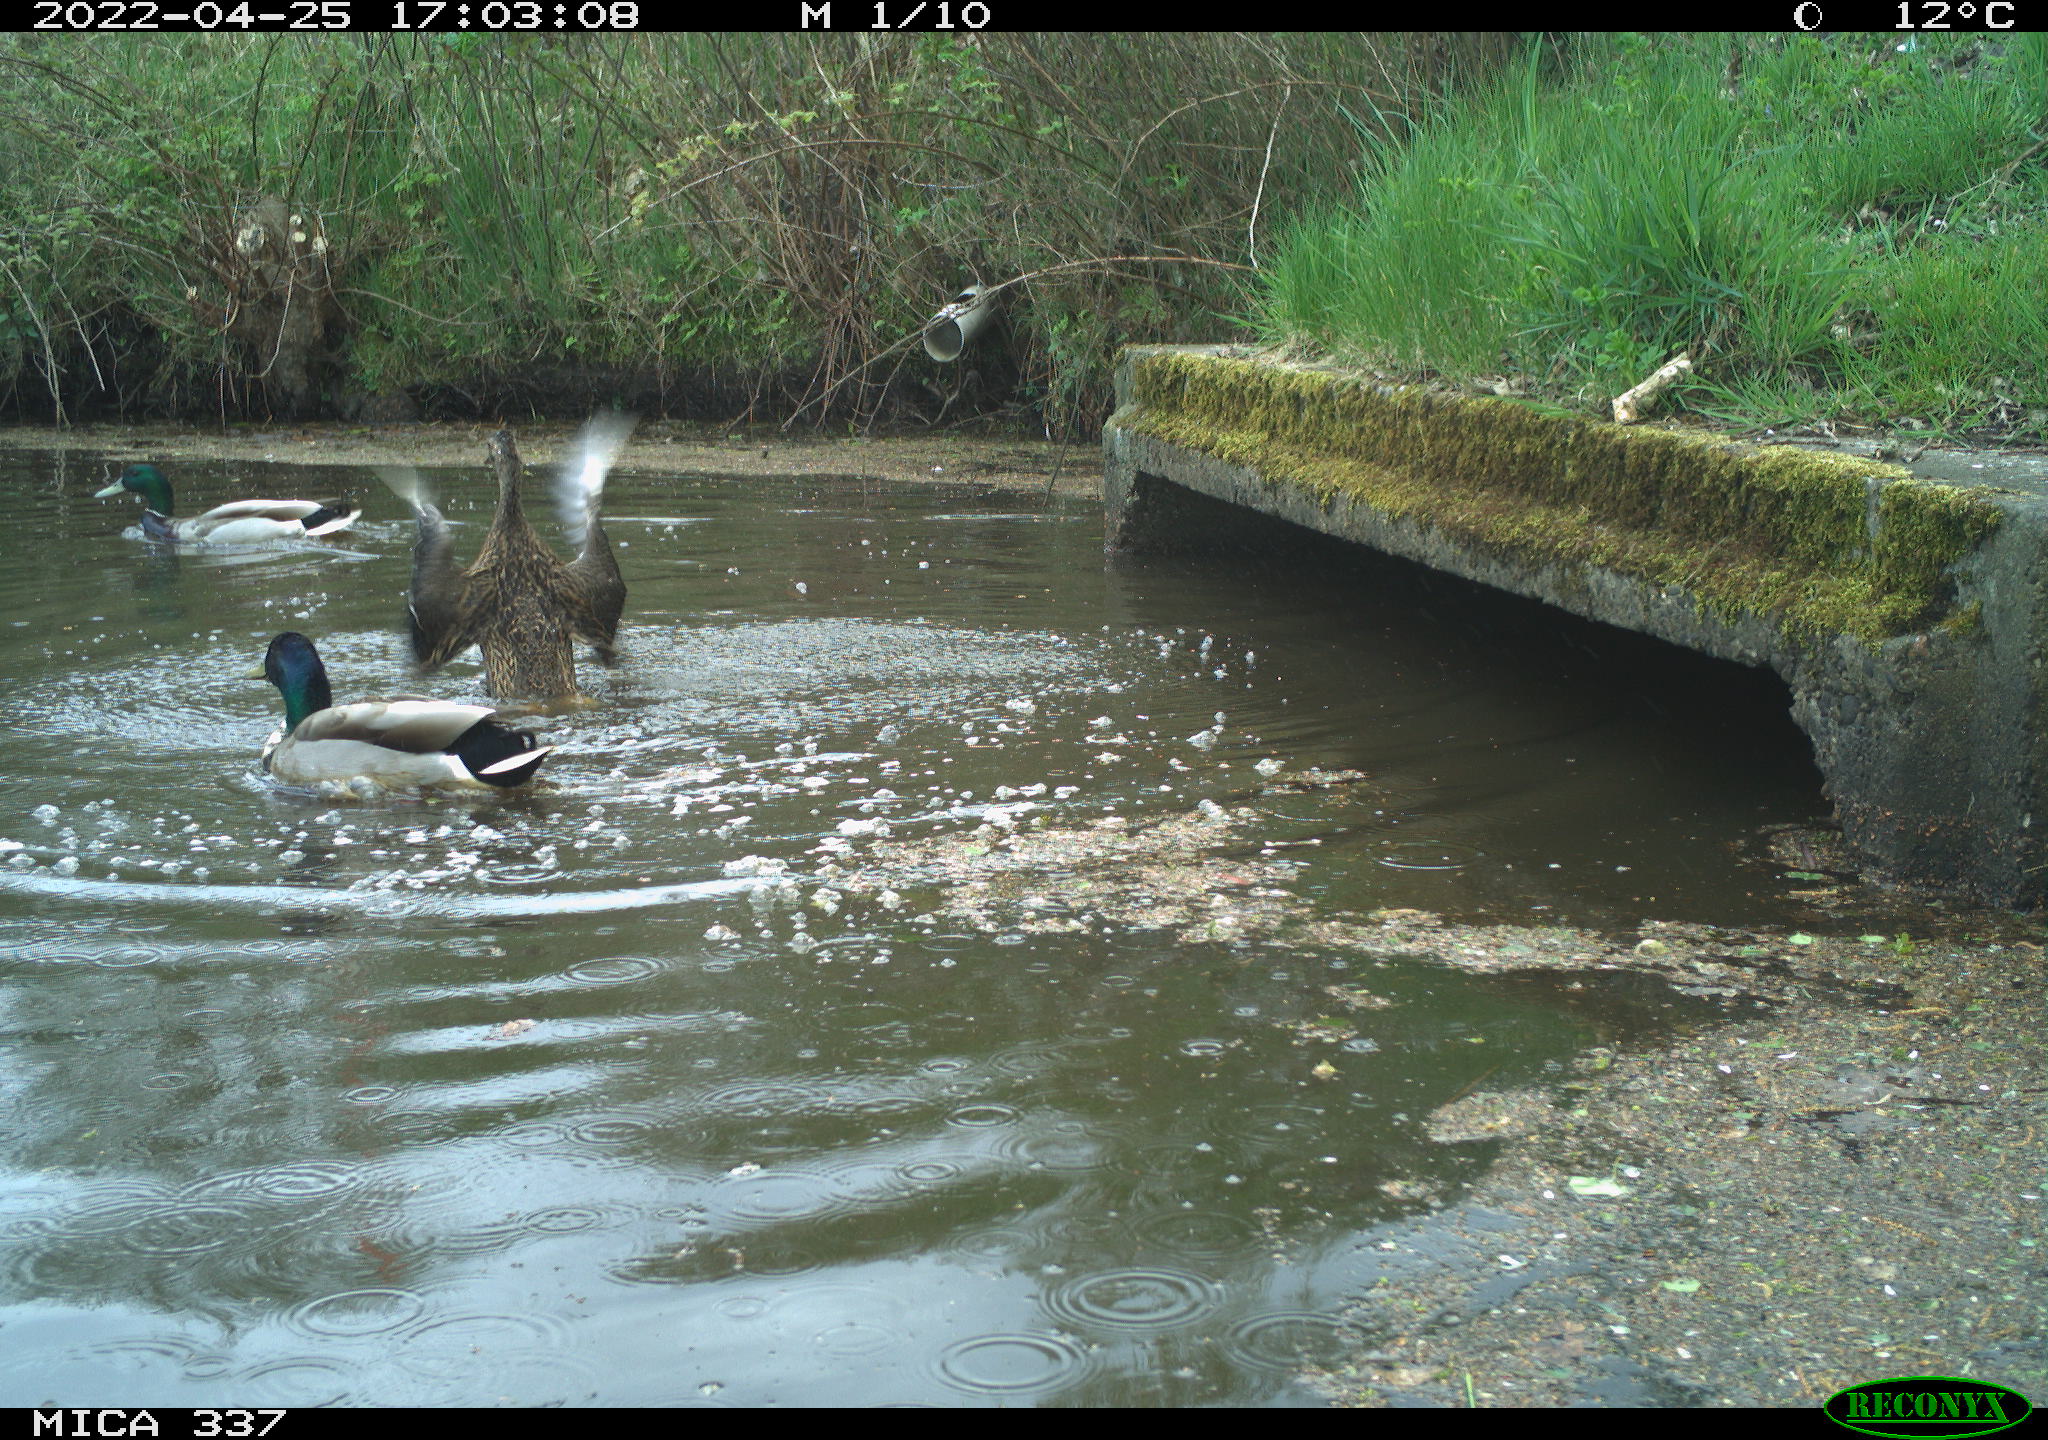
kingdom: Animalia
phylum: Chordata
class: Aves
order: Anseriformes
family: Anatidae
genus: Anas
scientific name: Anas platyrhynchos
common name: Mallard
